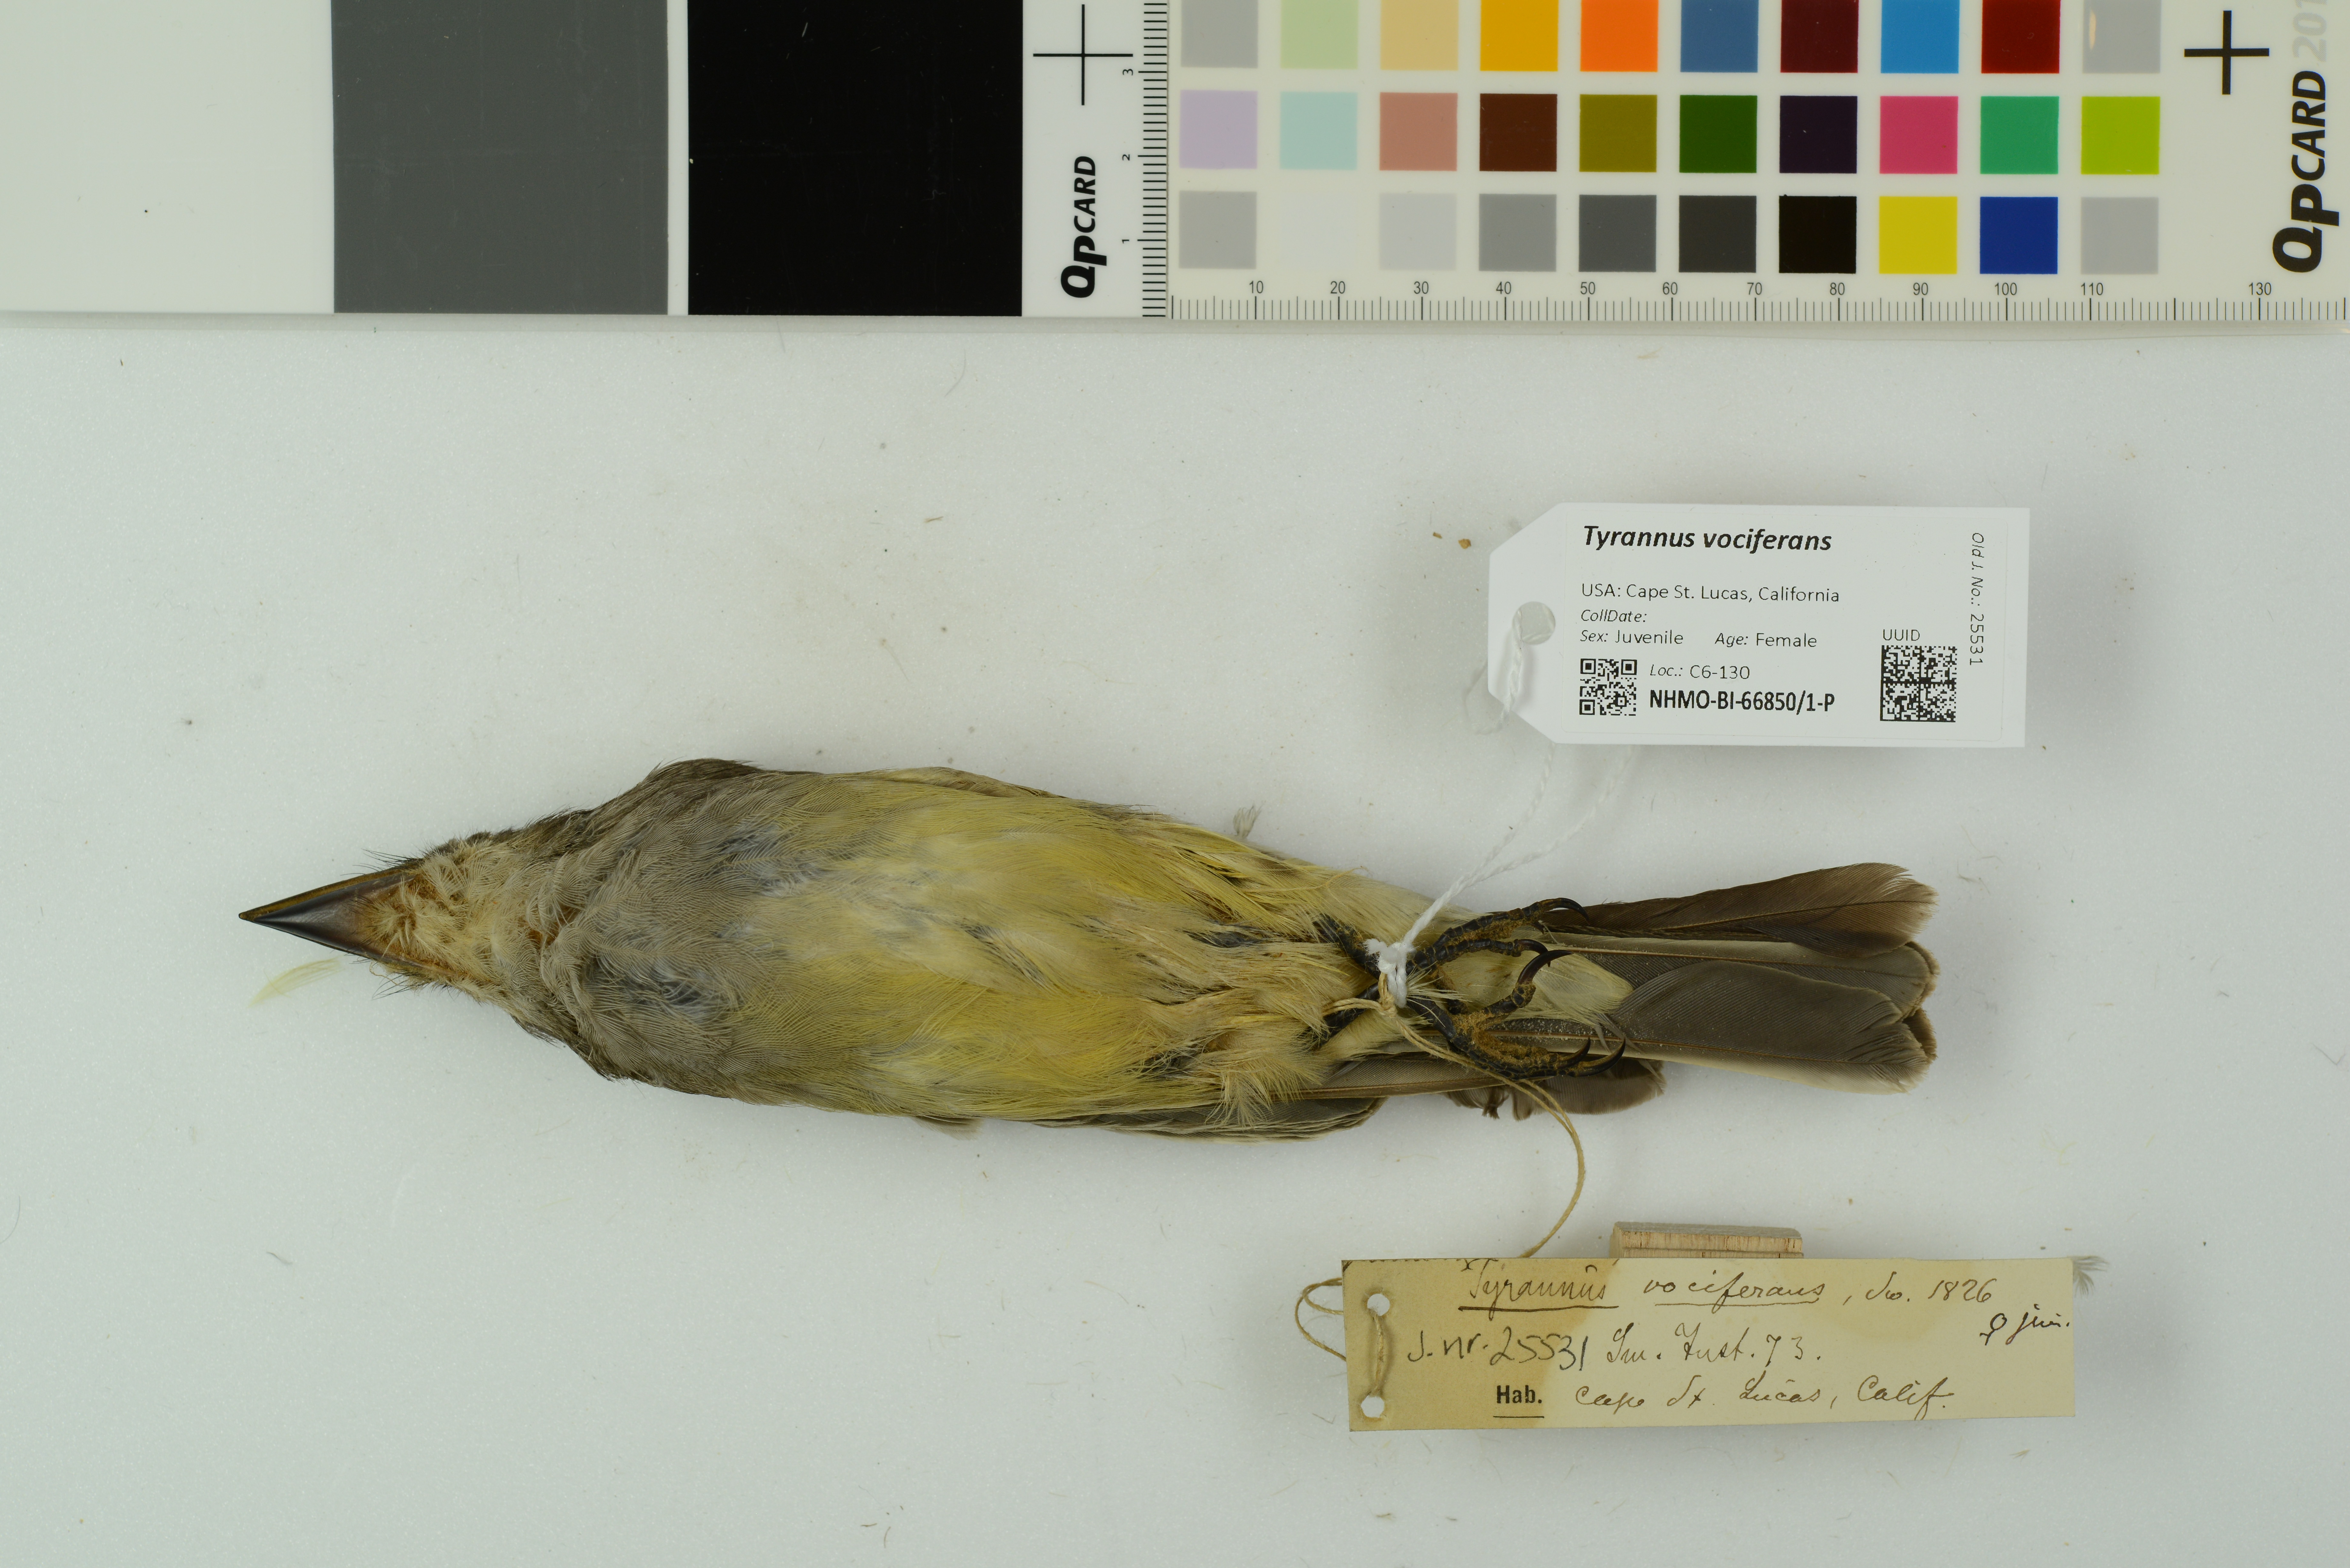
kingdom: Animalia
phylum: Chordata
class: Aves
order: Passeriformes
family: Tyrannidae
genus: Tyrannus
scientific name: Tyrannus vociferans
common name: Cassin's kingbird
